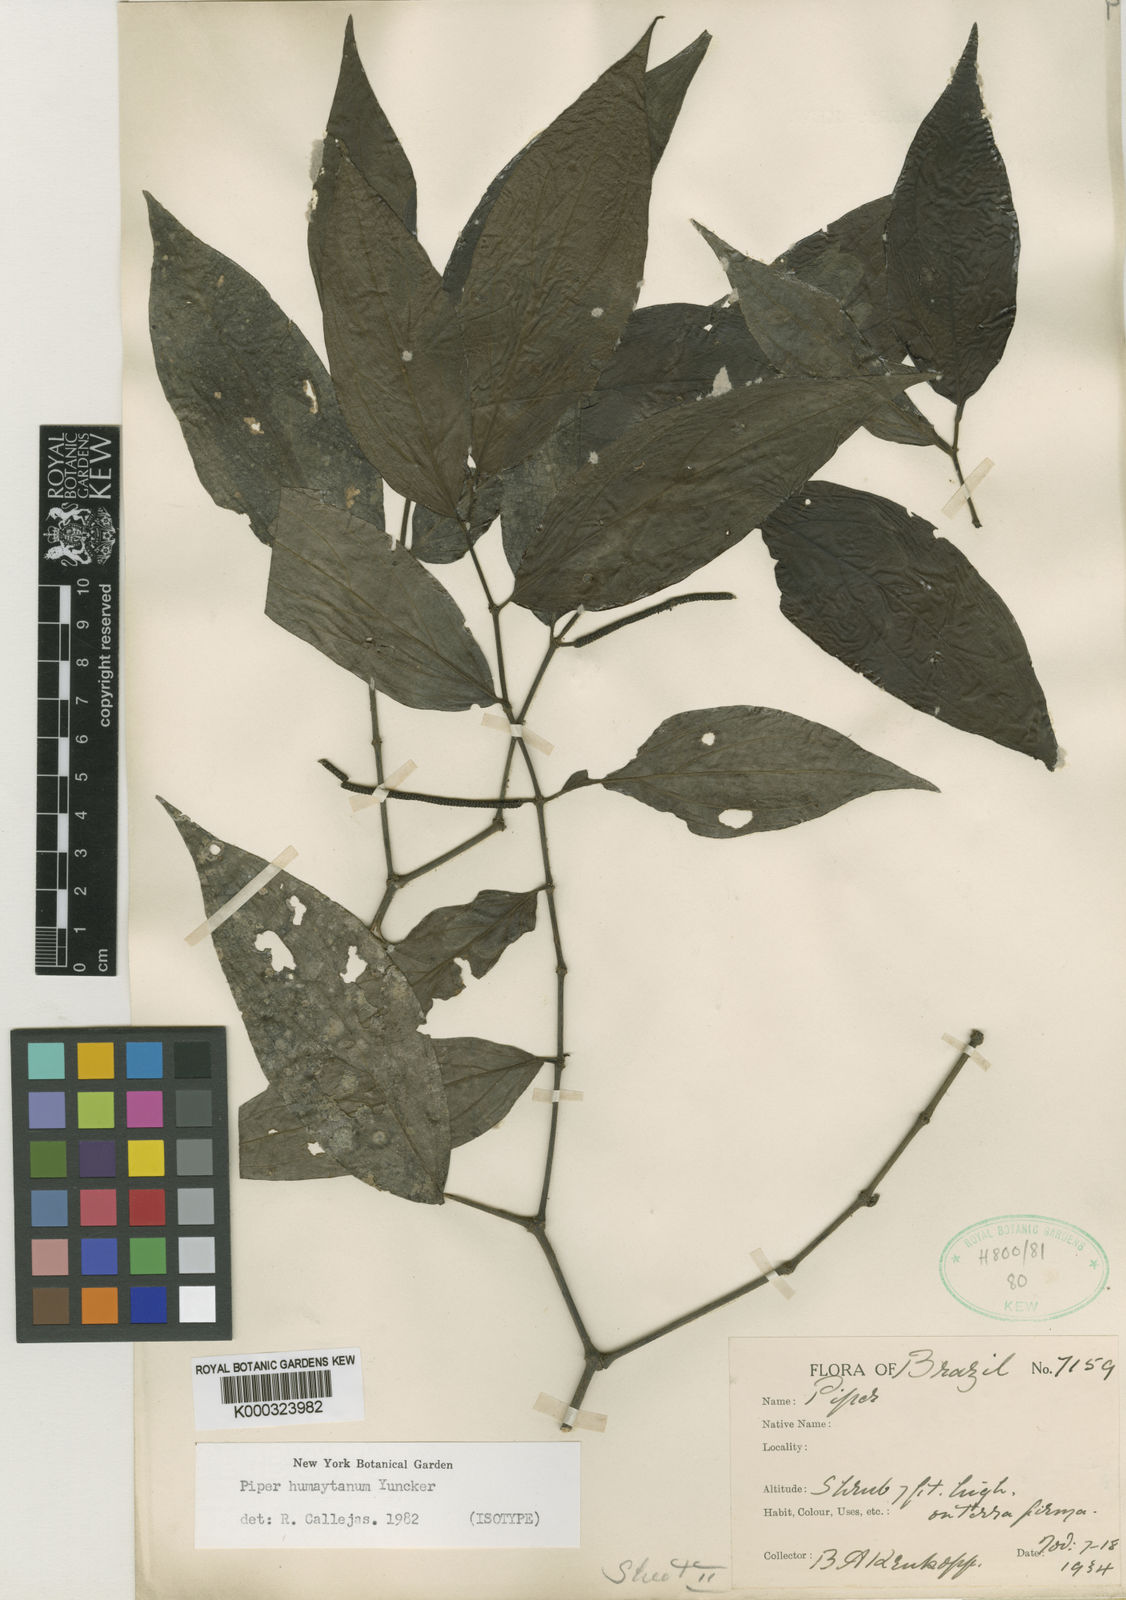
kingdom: Plantae
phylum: Tracheophyta
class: Magnoliopsida
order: Piperales
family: Piperaceae
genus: Piper
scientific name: Piper humaytanum
